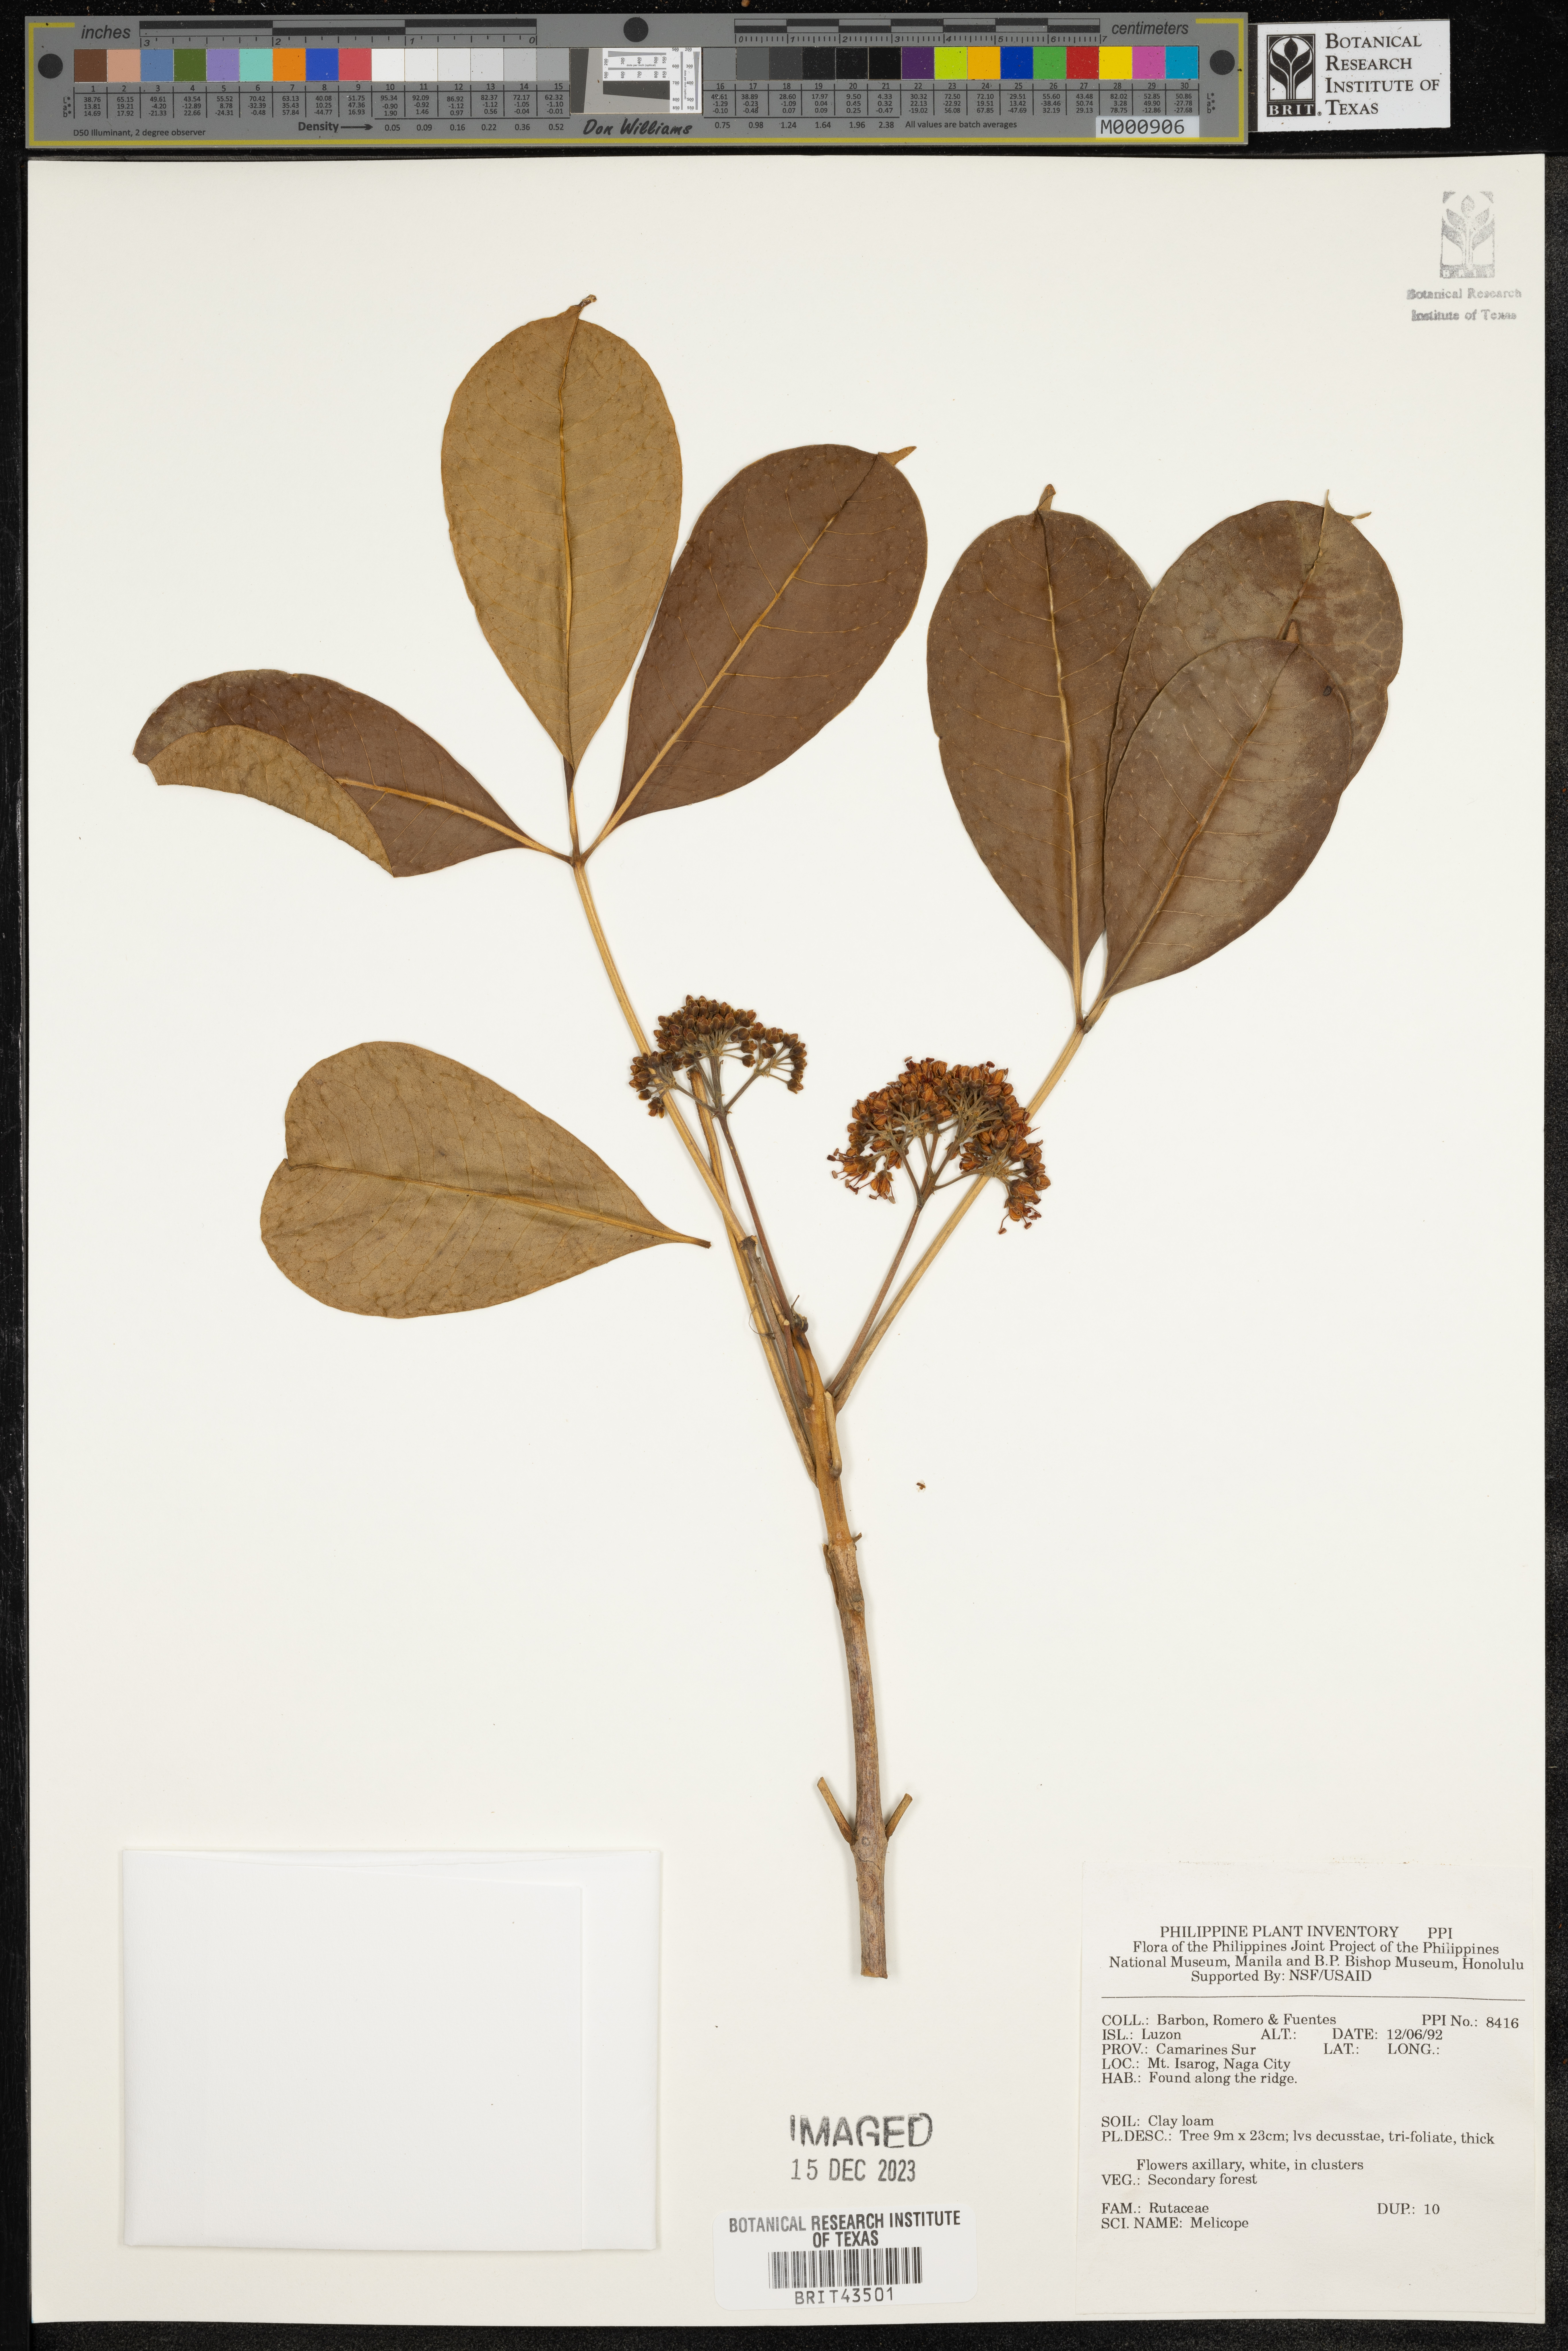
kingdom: Plantae
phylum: Tracheophyta
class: Magnoliopsida
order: Sapindales
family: Rutaceae
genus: Melicope
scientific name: Melicope
